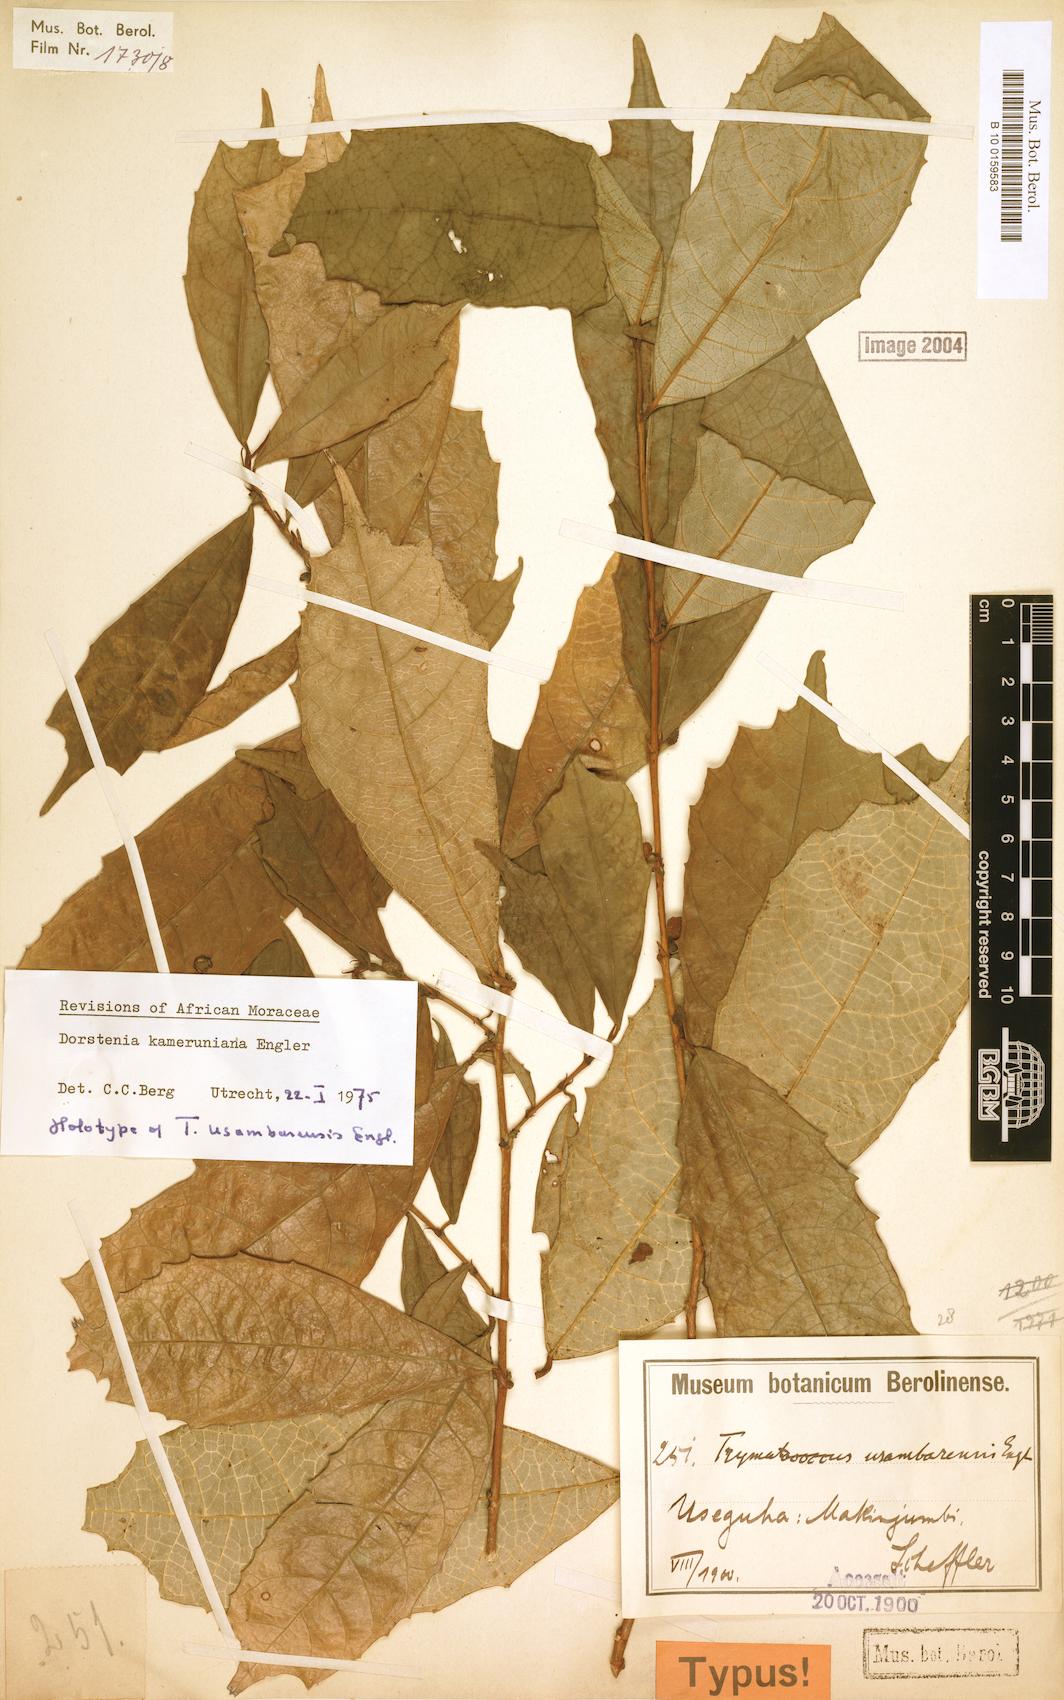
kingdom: Plantae
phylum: Tracheophyta
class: Magnoliopsida
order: Rosales
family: Moraceae
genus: Dorstenia
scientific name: Dorstenia kameruniana
